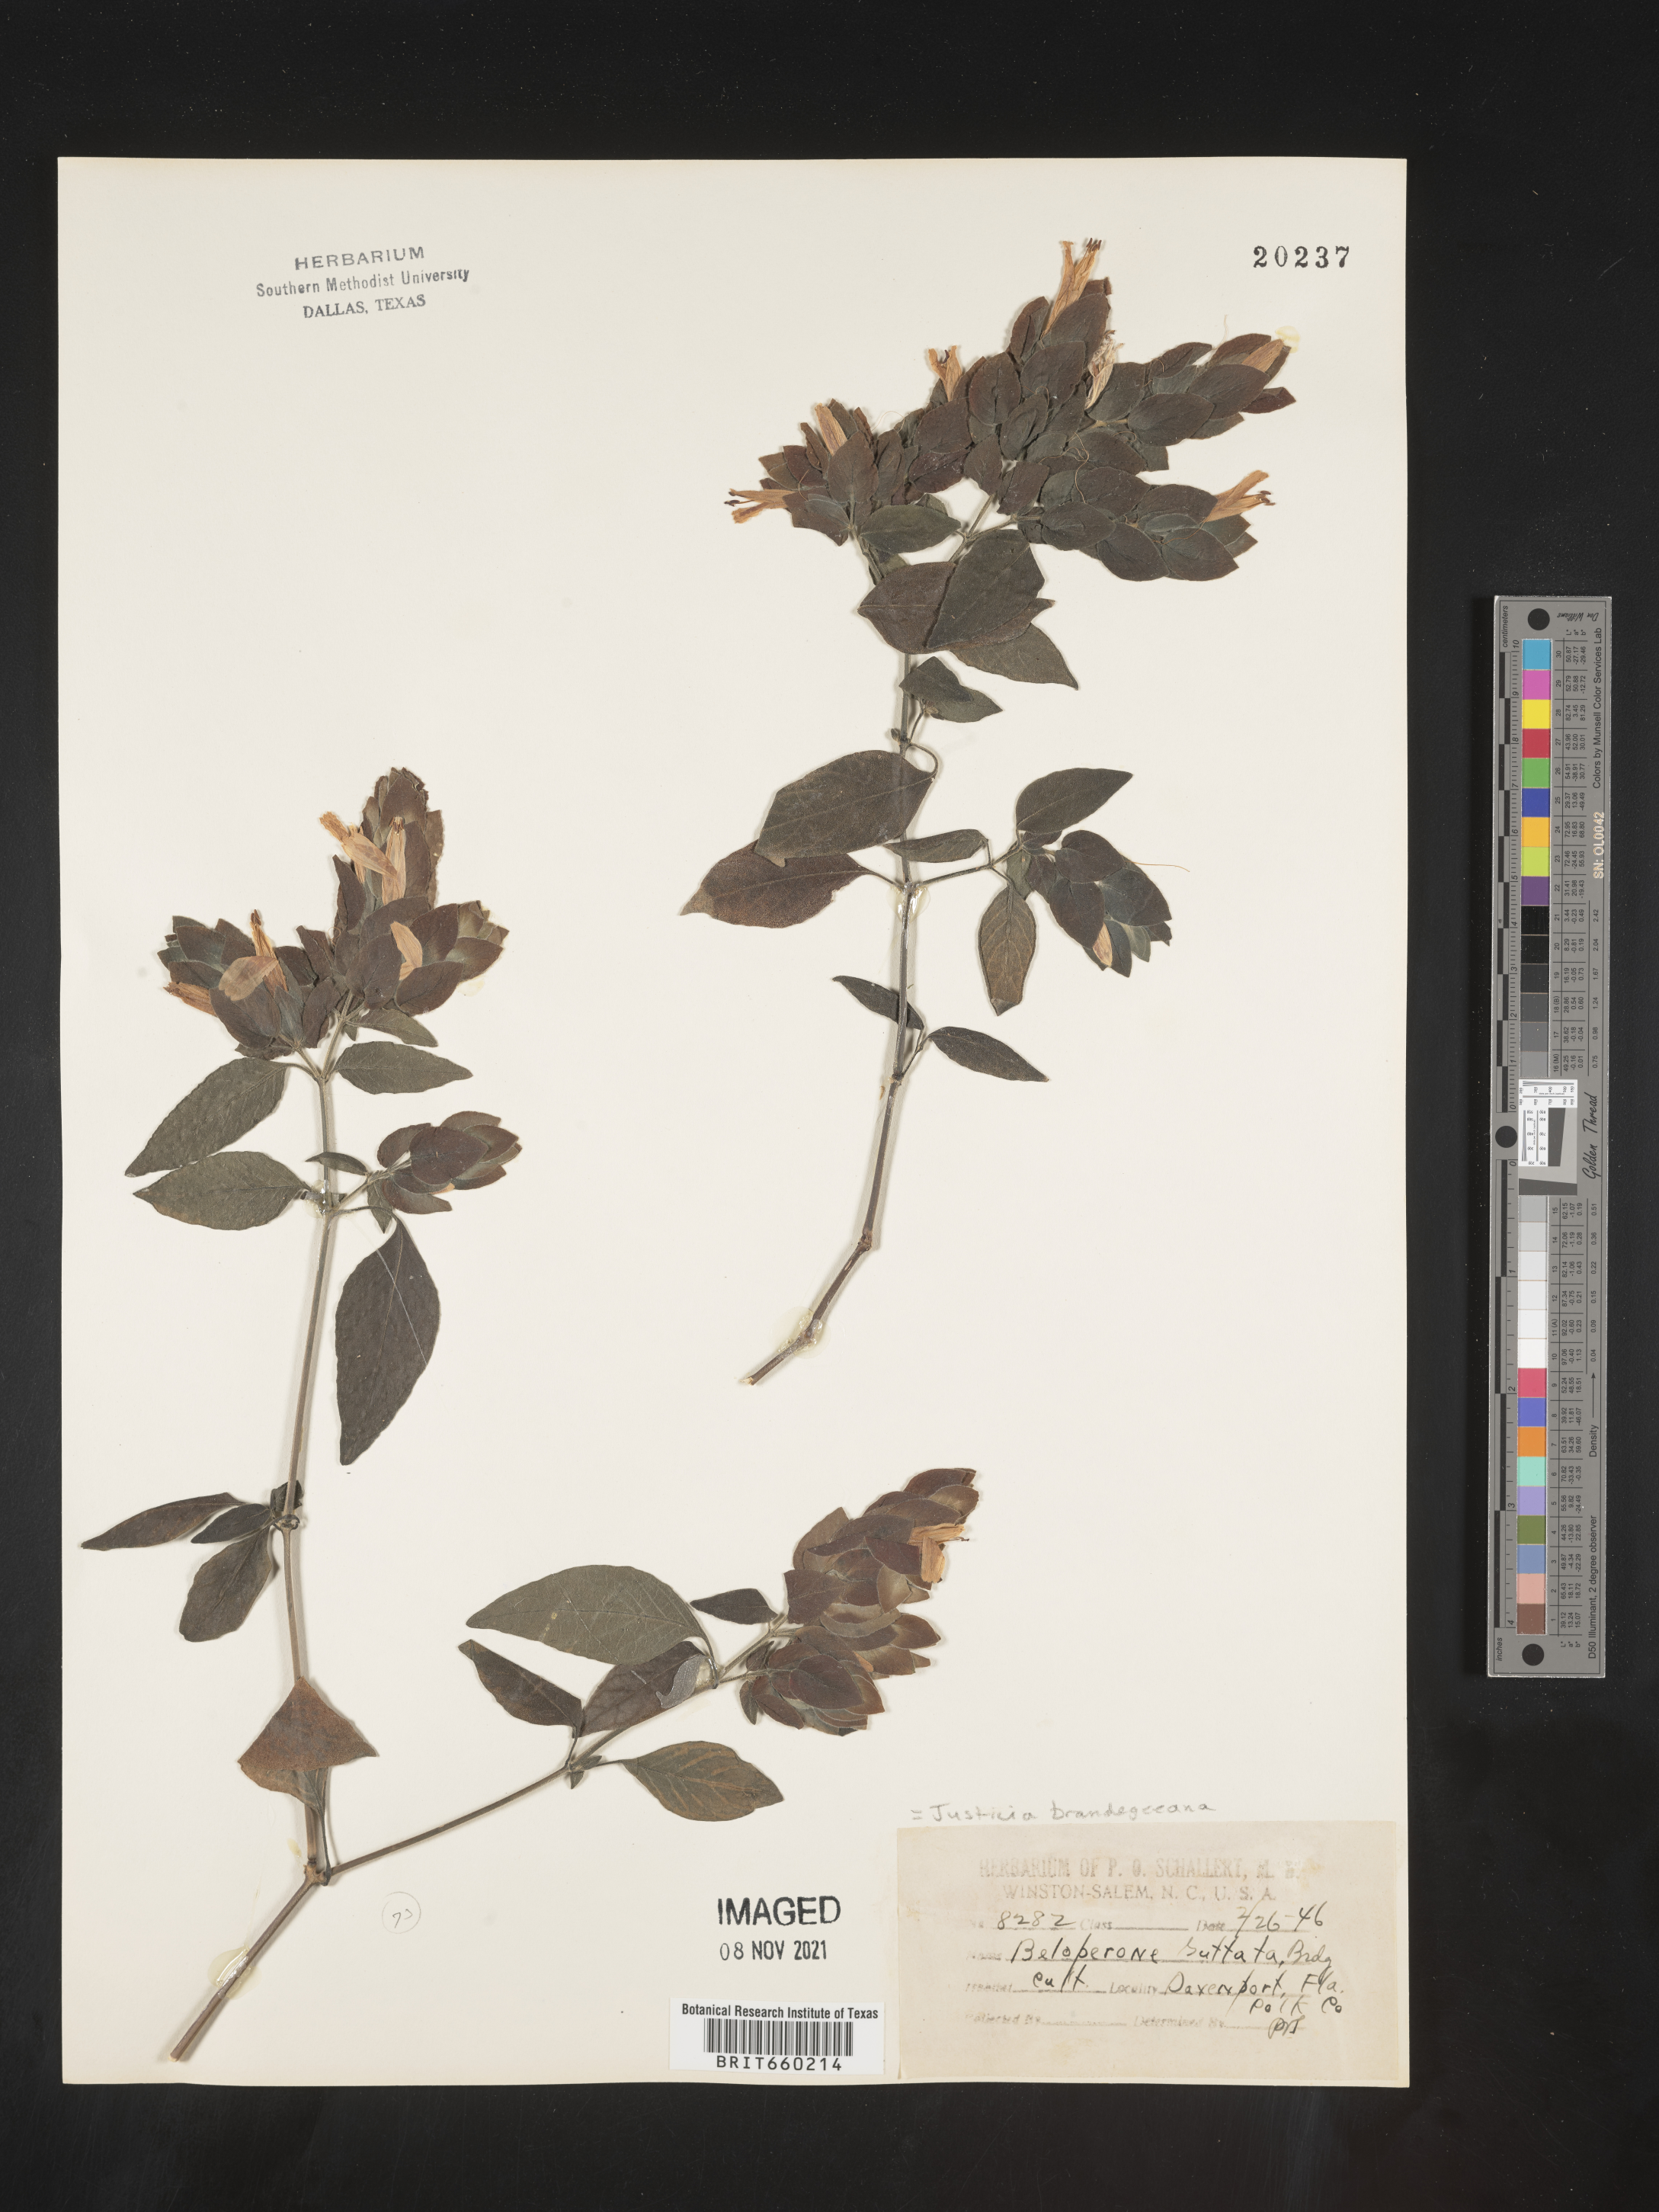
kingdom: Plantae
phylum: Tracheophyta
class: Magnoliopsida
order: Lamiales
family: Acanthaceae
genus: Justicia
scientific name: Justicia
